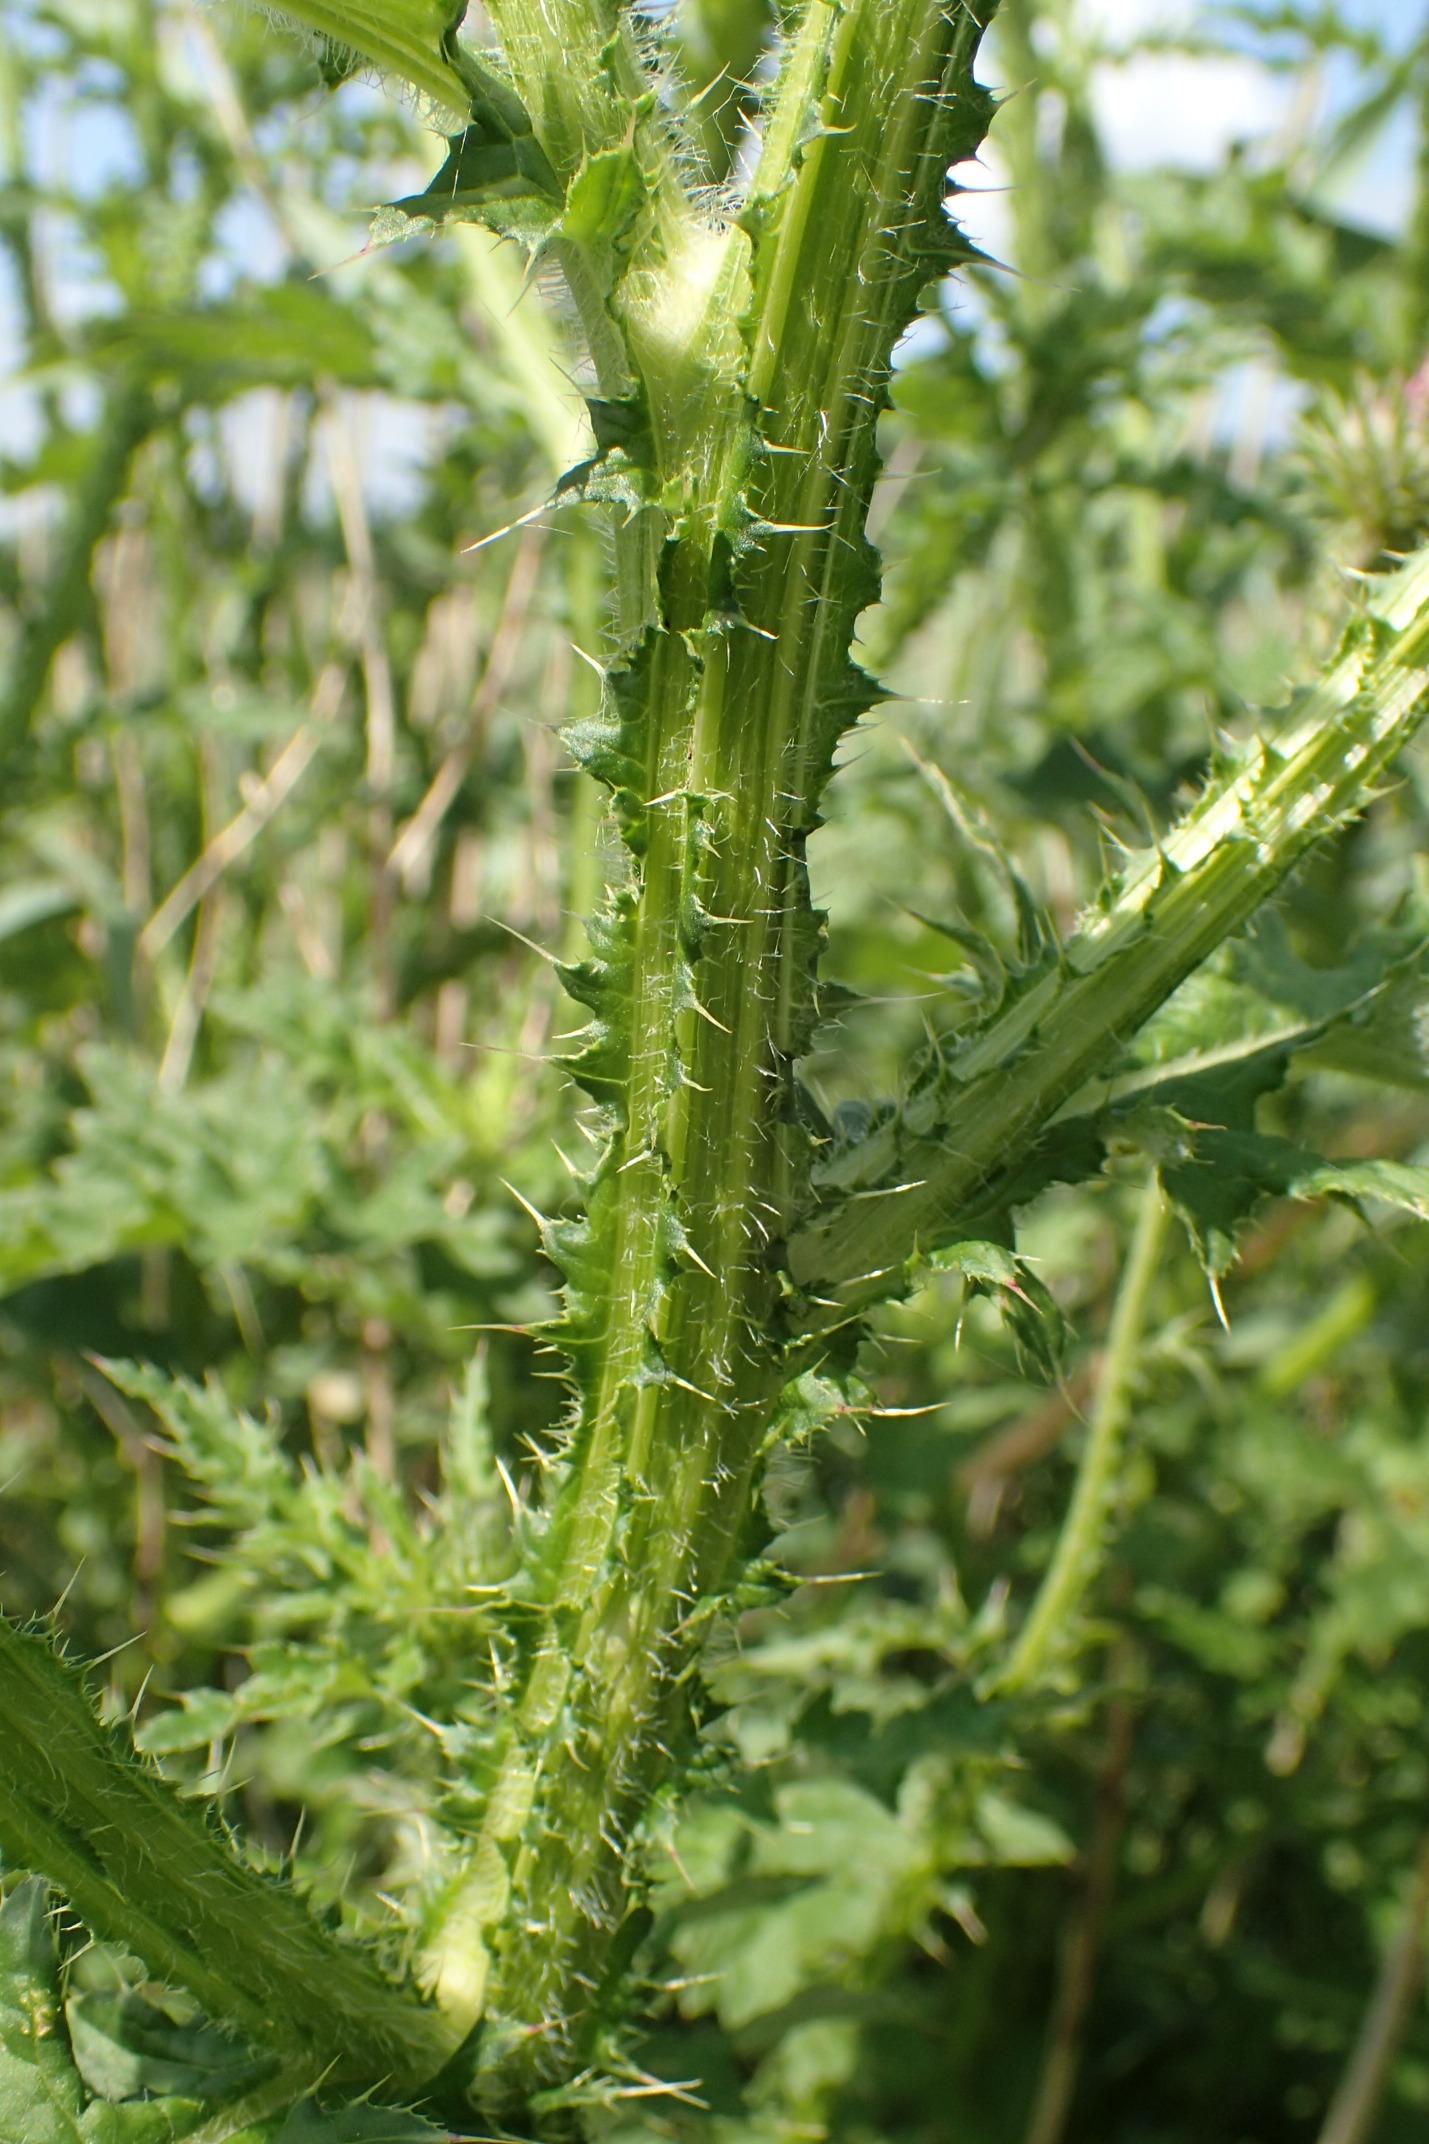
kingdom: Plantae
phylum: Tracheophyta
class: Magnoliopsida
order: Asterales
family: Asteraceae
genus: Carduus
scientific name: Carduus crispus
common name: Kruset tidsel
